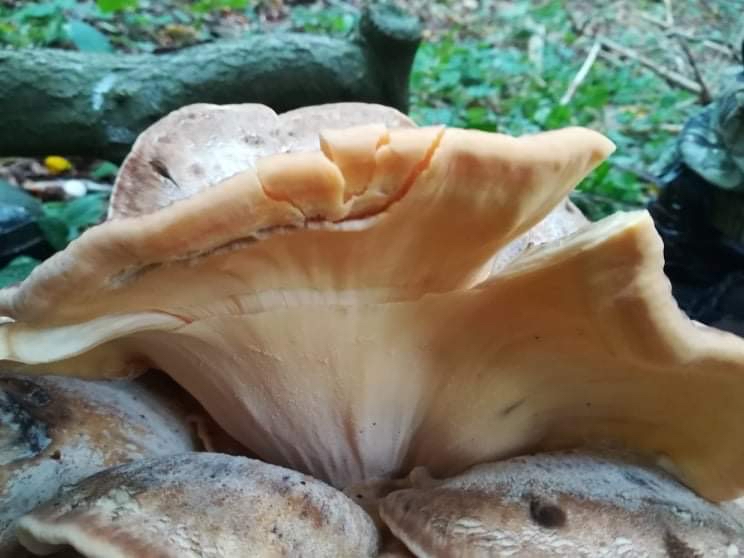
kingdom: Fungi
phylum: Basidiomycota
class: Agaricomycetes
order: Polyporales
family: Meripilaceae
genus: Meripilus
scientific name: Meripilus giganteus
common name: kæmpeporesvamp
